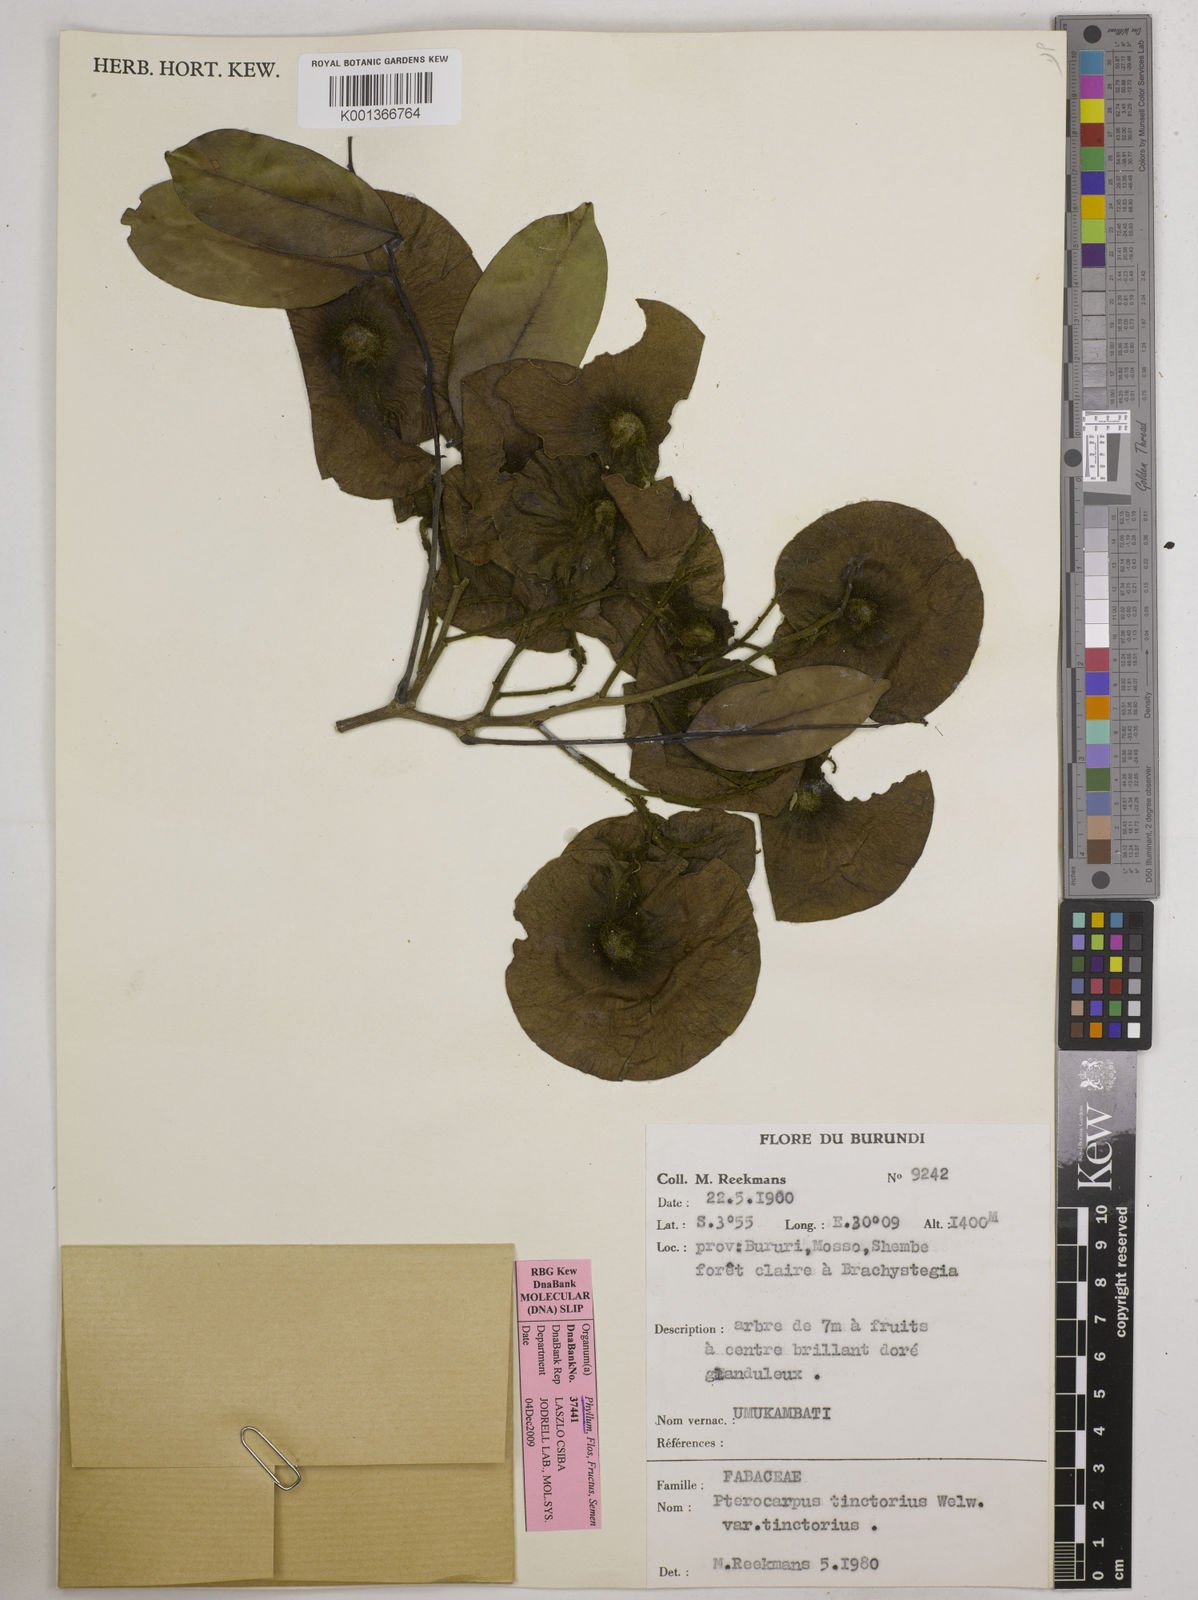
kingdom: Plantae
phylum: Tracheophyta
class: Magnoliopsida
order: Fabales
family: Fabaceae
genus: Pterocarpus
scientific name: Pterocarpus tinctorius
